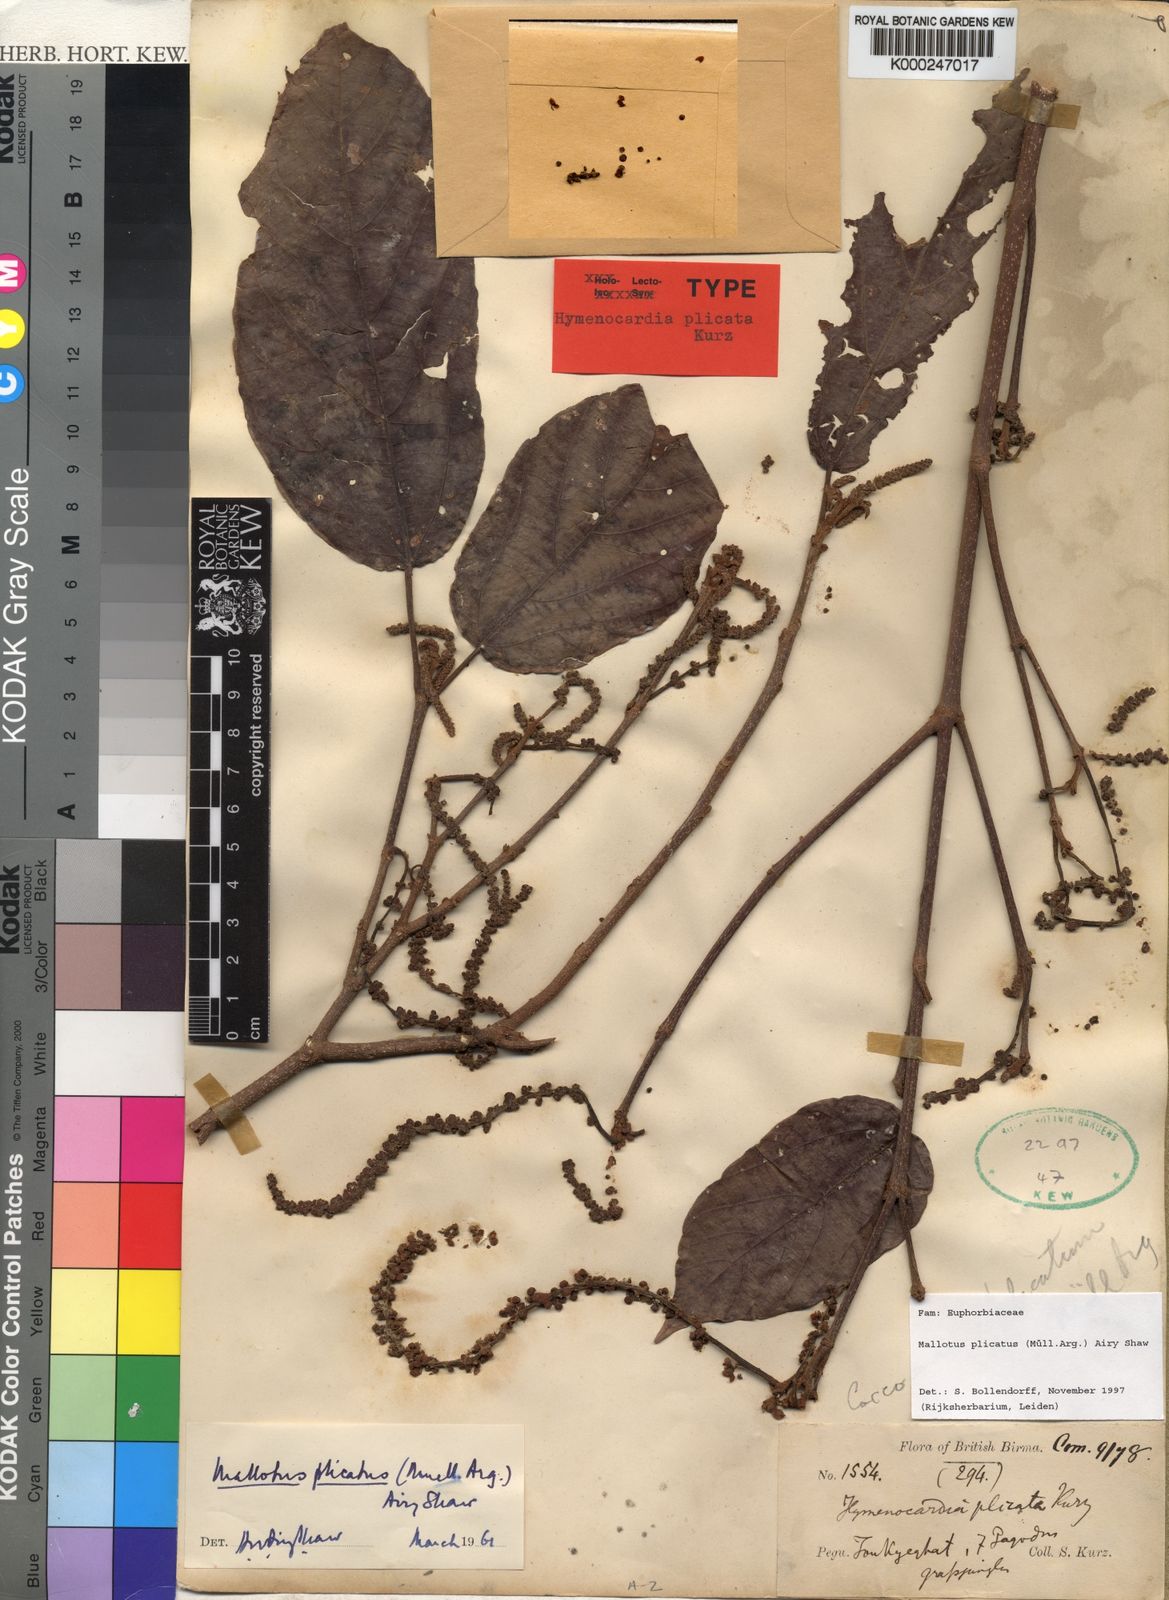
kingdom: Plantae
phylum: Tracheophyta
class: Magnoliopsida
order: Malpighiales
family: Euphorbiaceae
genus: Mallotus
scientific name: Mallotus
